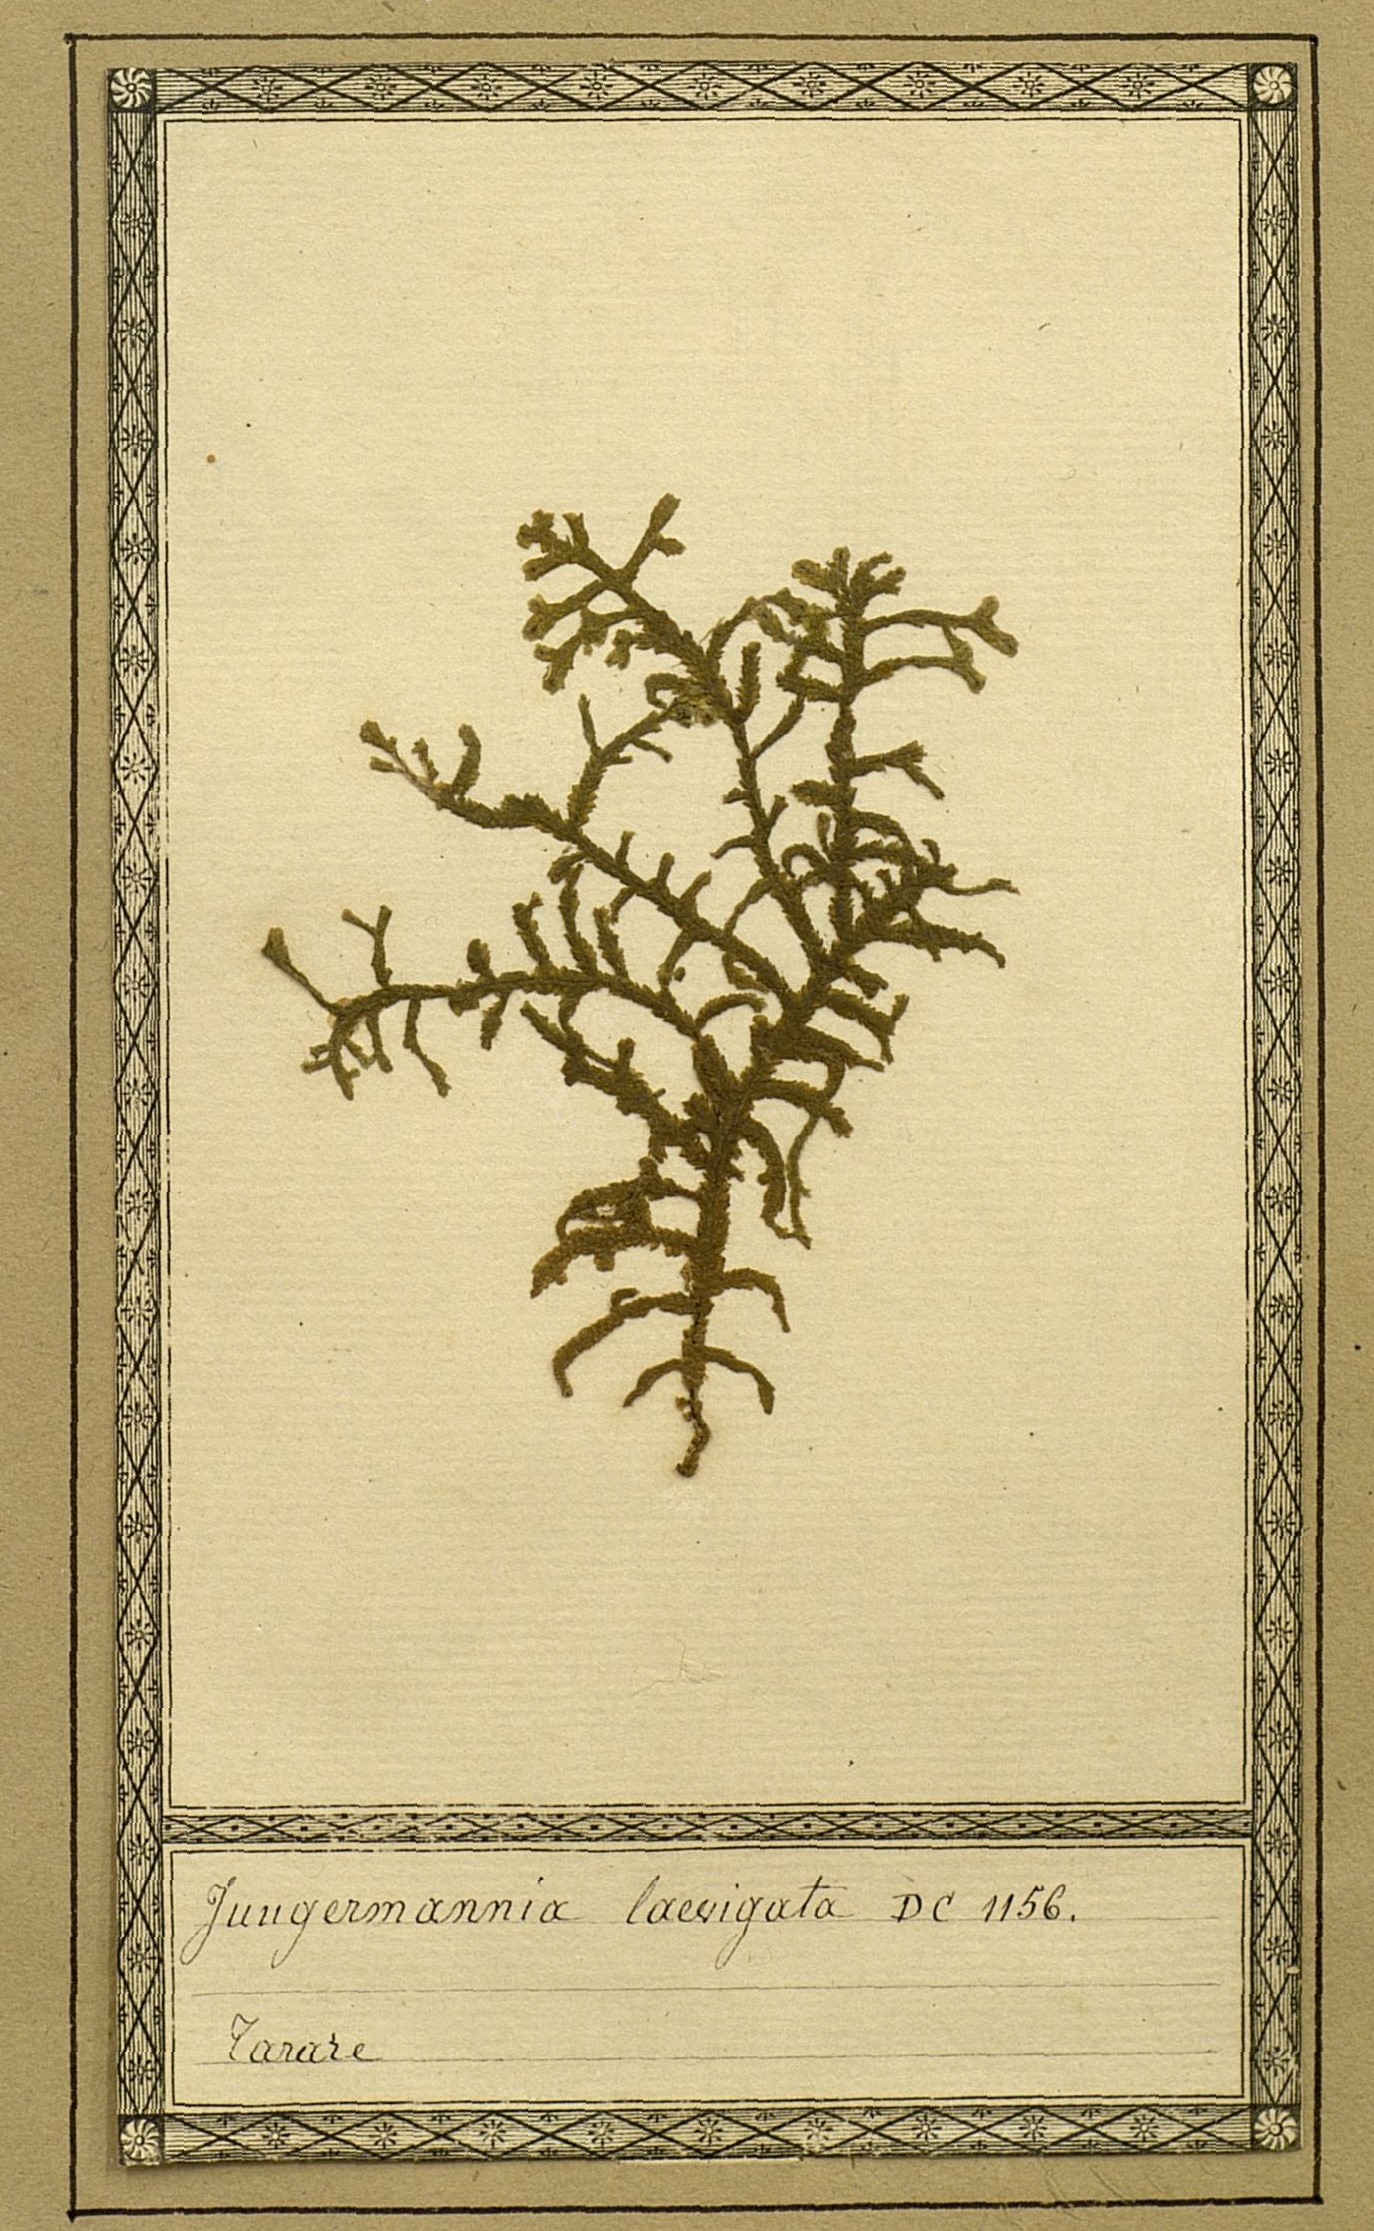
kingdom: Plantae
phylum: Marchantiophyta
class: Jungermanniopsida
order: Porellales
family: Porellaceae
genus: Porella
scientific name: Porella arboris-vitae
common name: Bitter scalewort
